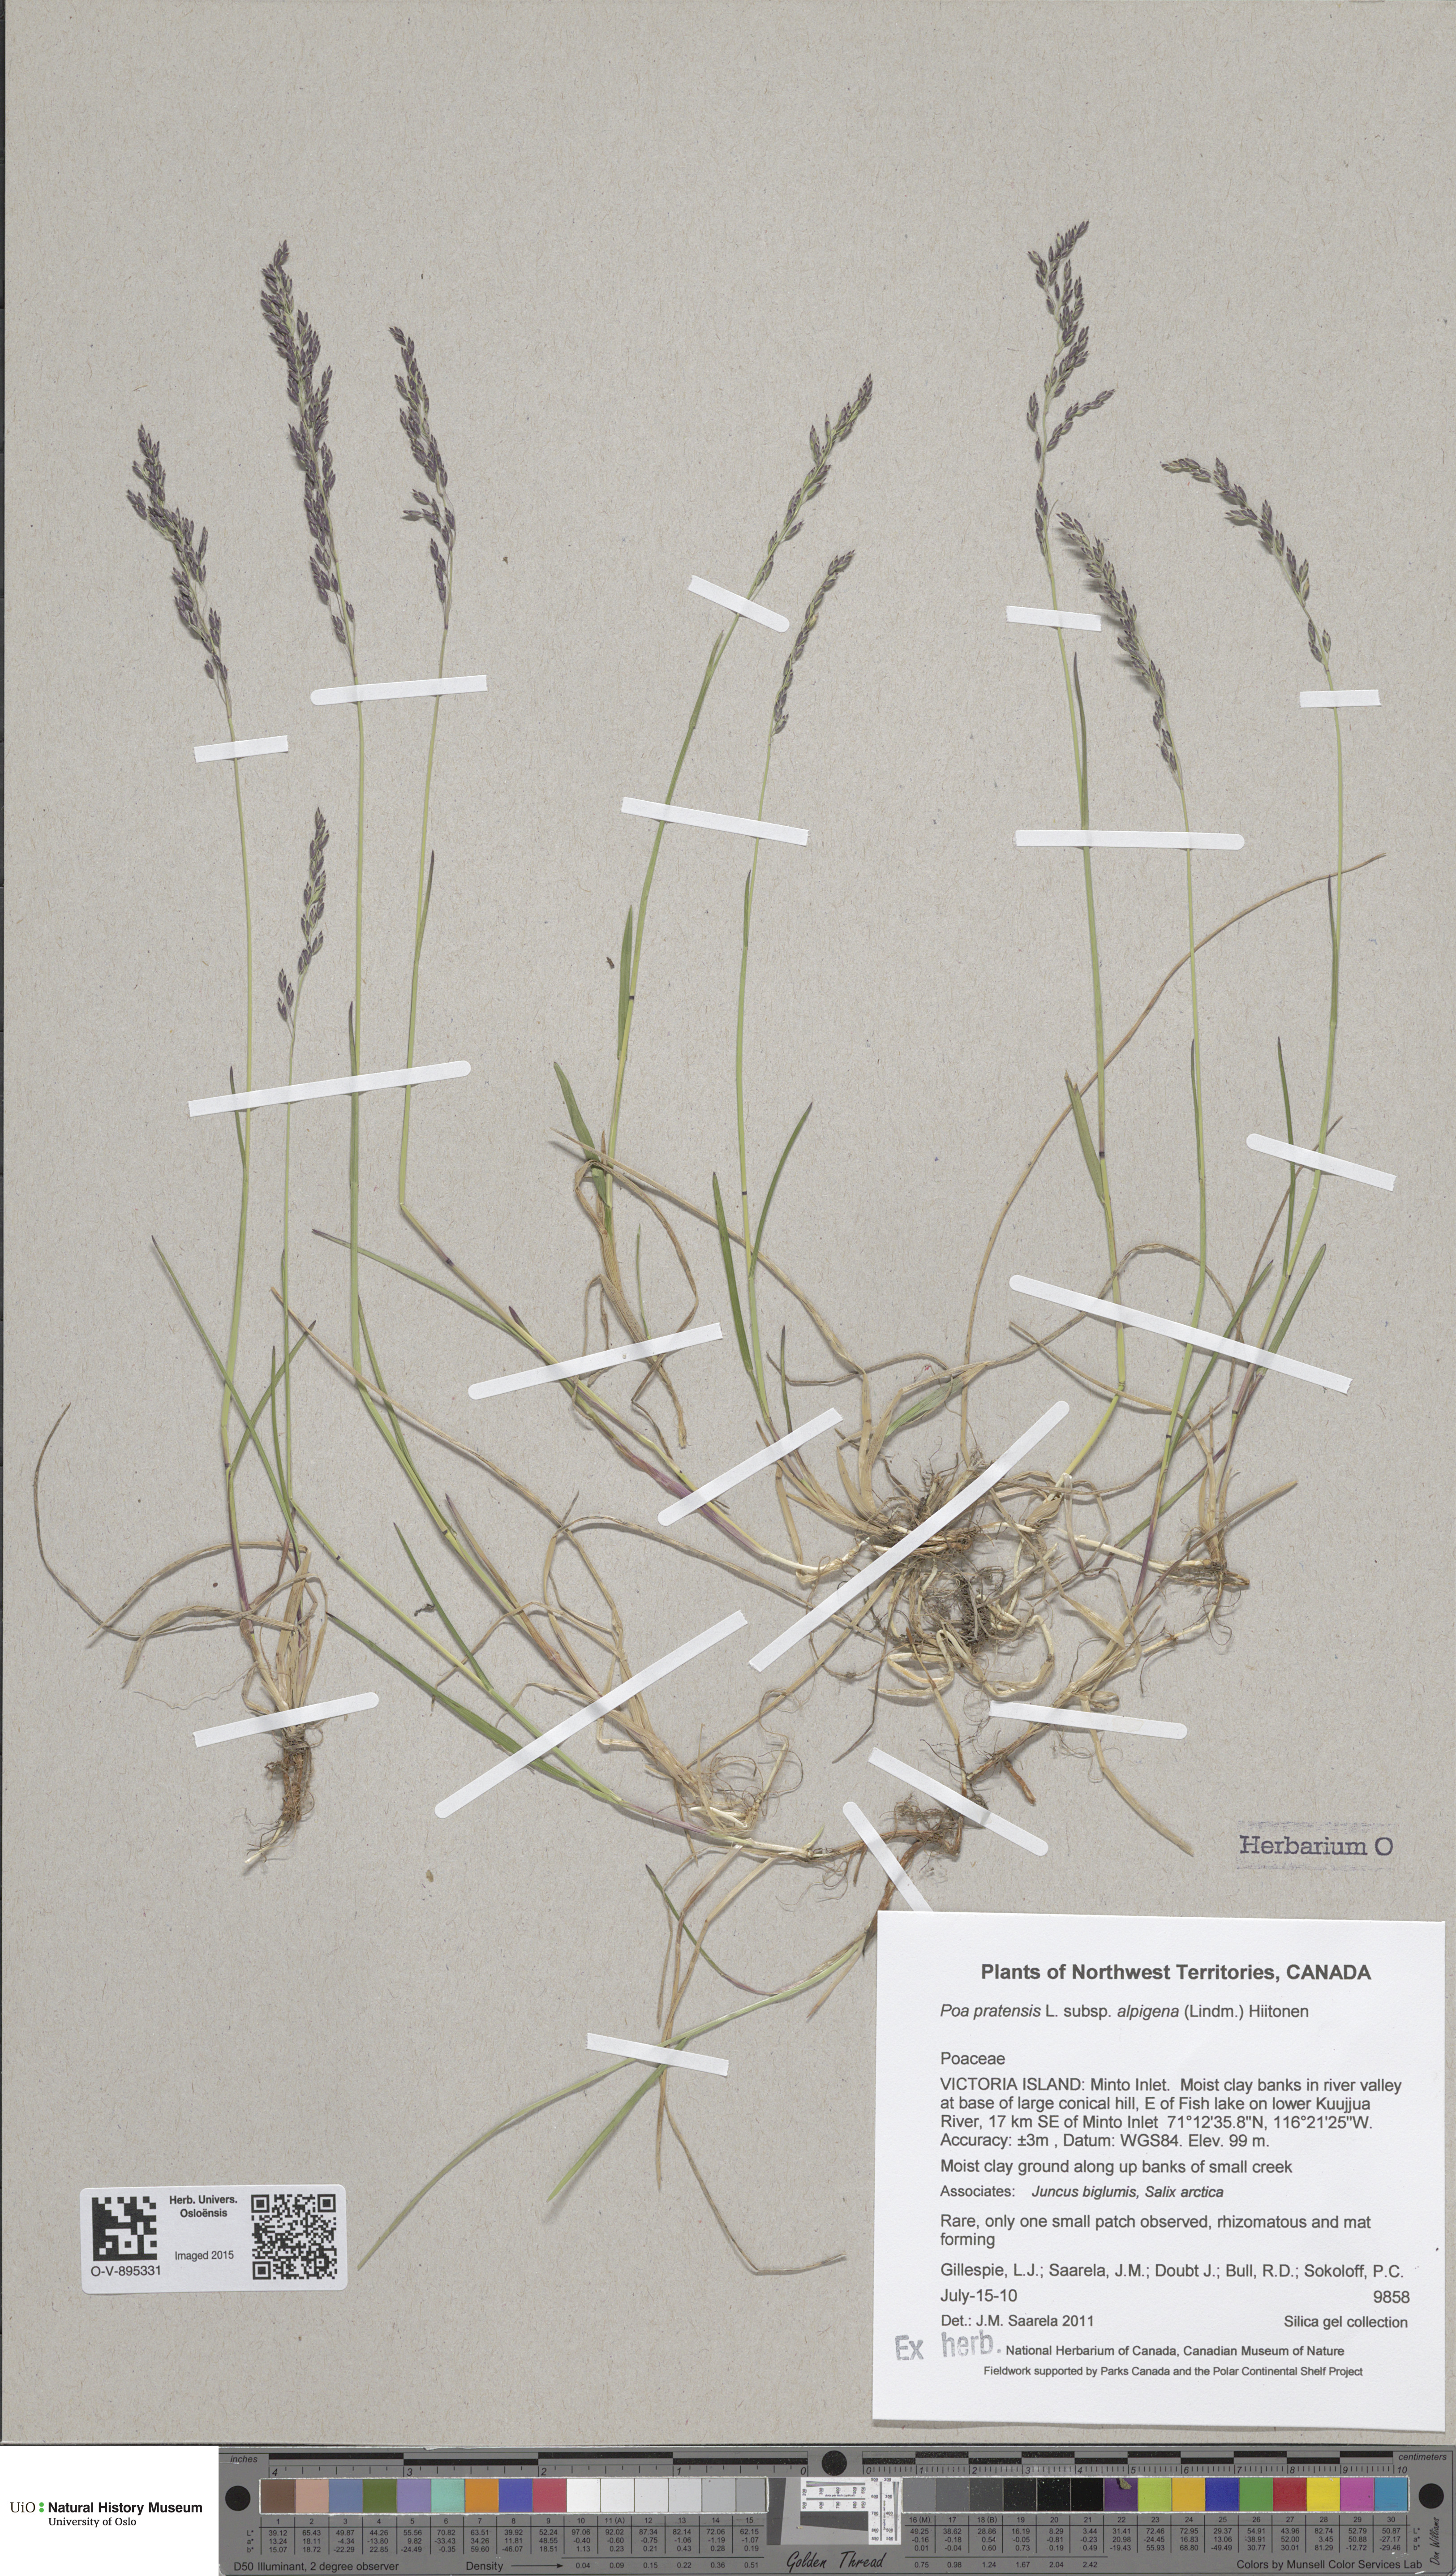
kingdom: Plantae
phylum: Tracheophyta
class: Liliopsida
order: Poales
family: Poaceae
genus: Poa
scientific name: Poa alpigena
